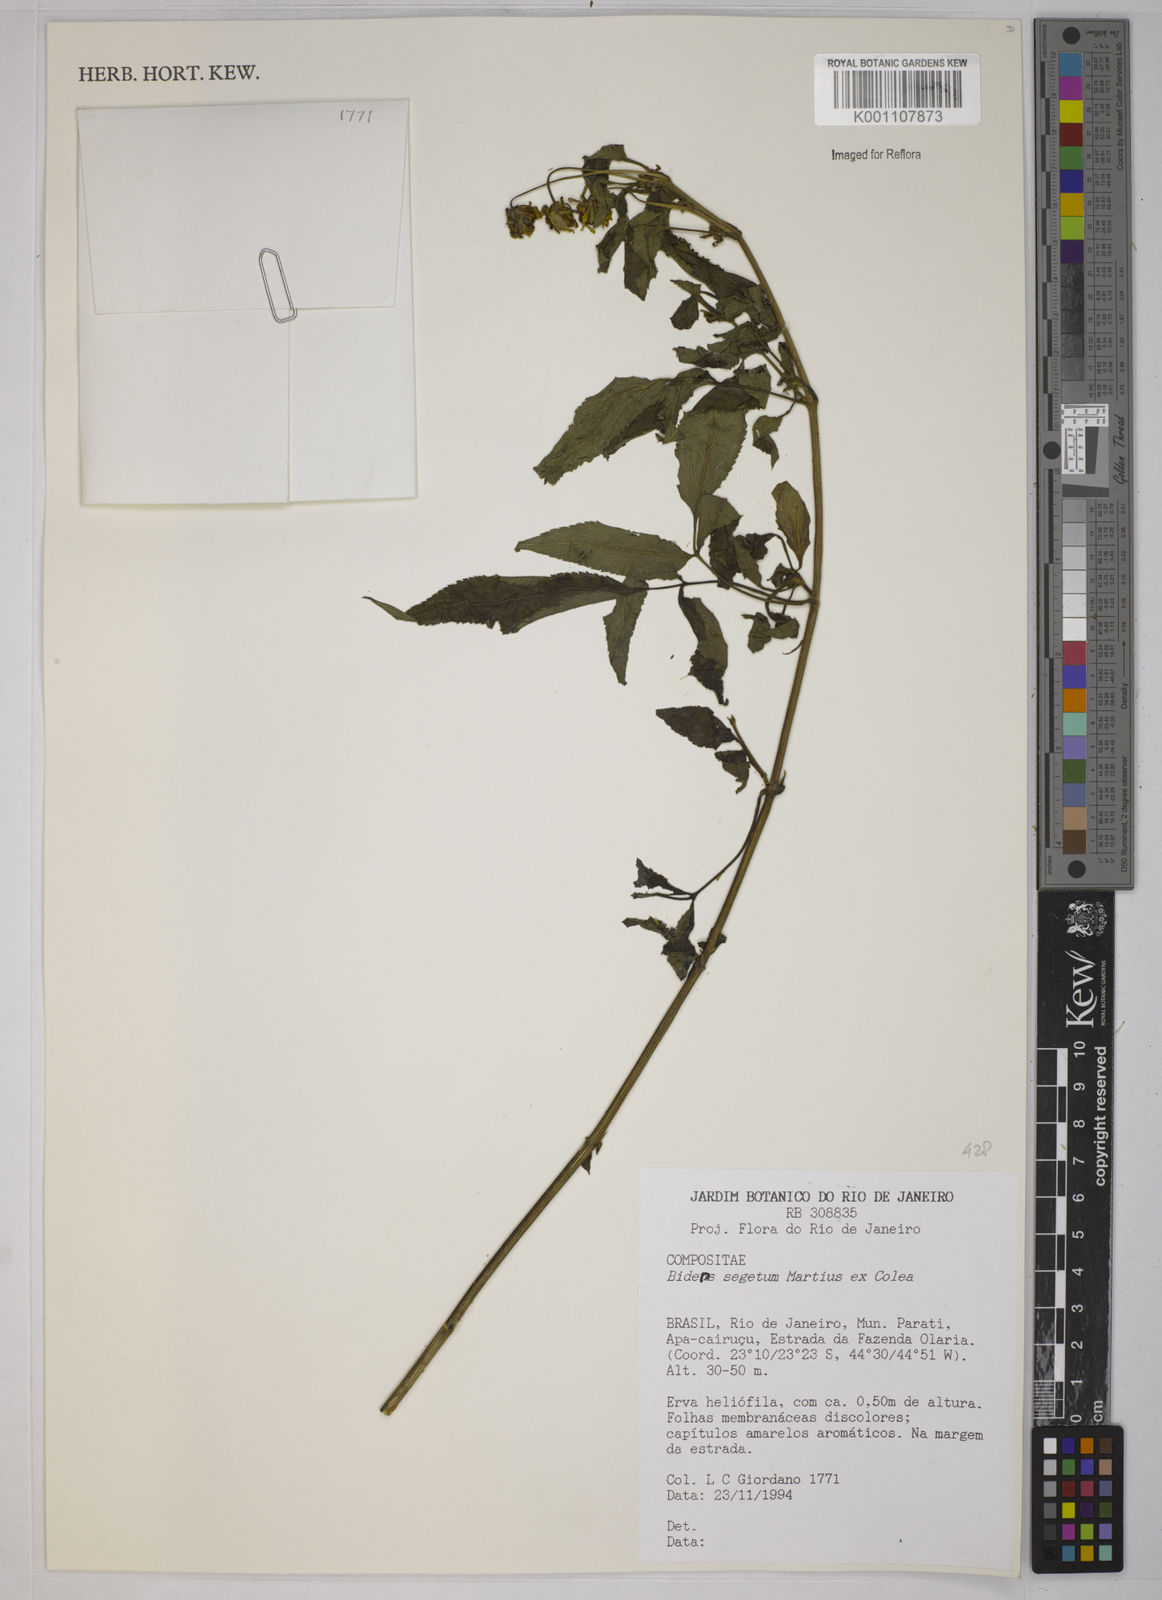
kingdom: Plantae
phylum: Tracheophyta
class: Magnoliopsida
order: Asterales
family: Asteraceae
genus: Bidens
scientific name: Bidens segetum
